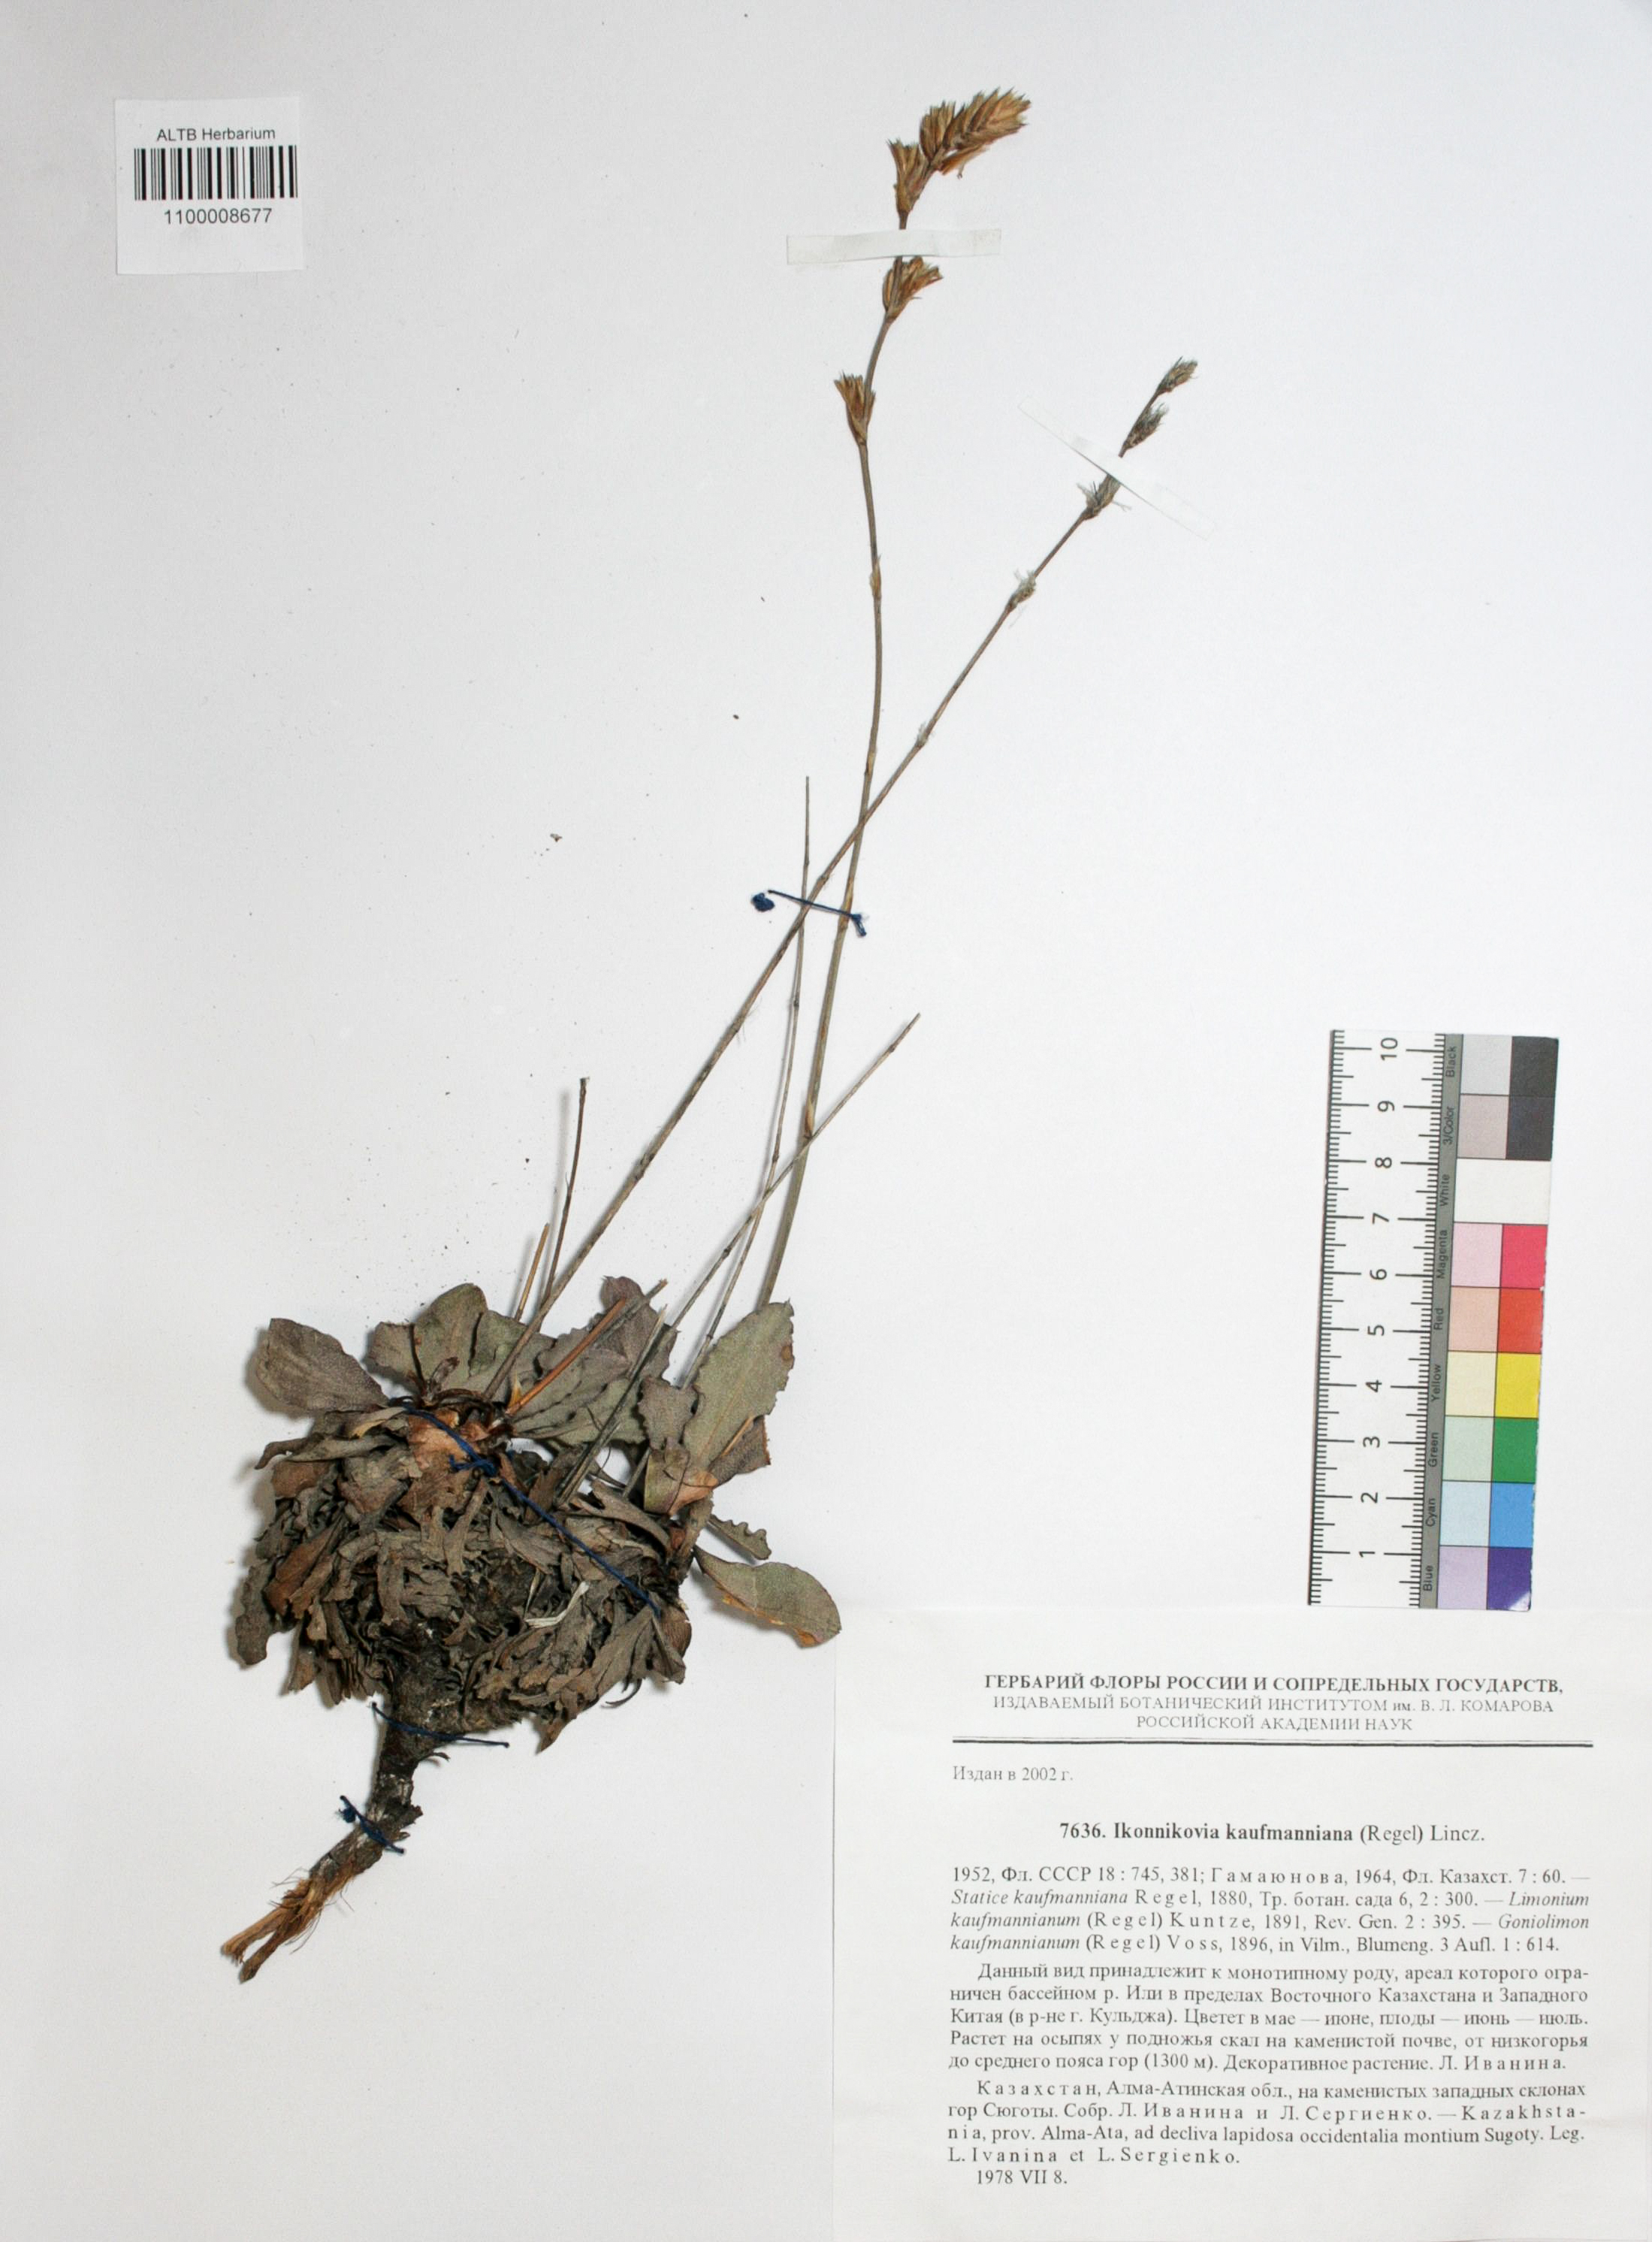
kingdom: Plantae
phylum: Tracheophyta
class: Magnoliopsida
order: Caryophyllales
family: Plumbaginaceae
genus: Ikonnikovia
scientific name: Ikonnikovia kaufmanniana
